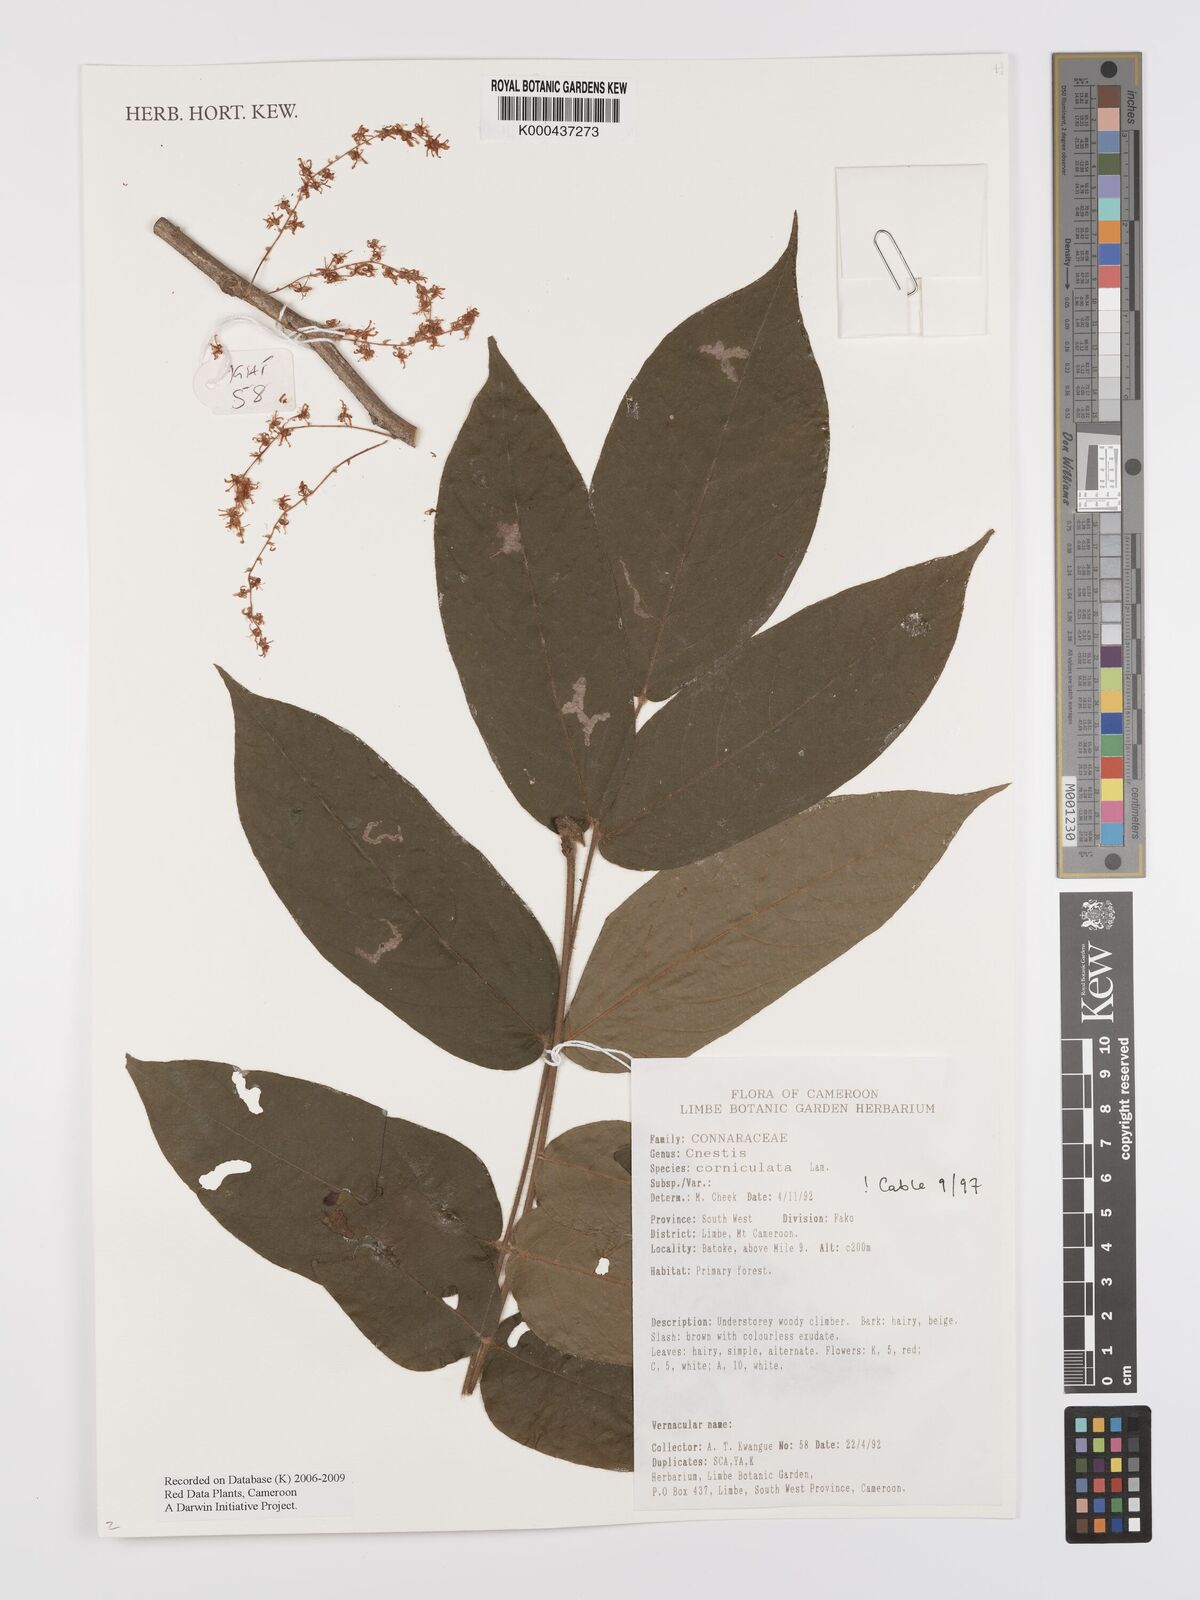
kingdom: Plantae
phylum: Tracheophyta
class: Magnoliopsida
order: Oxalidales
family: Connaraceae
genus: Cnestis
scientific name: Cnestis corniculata
